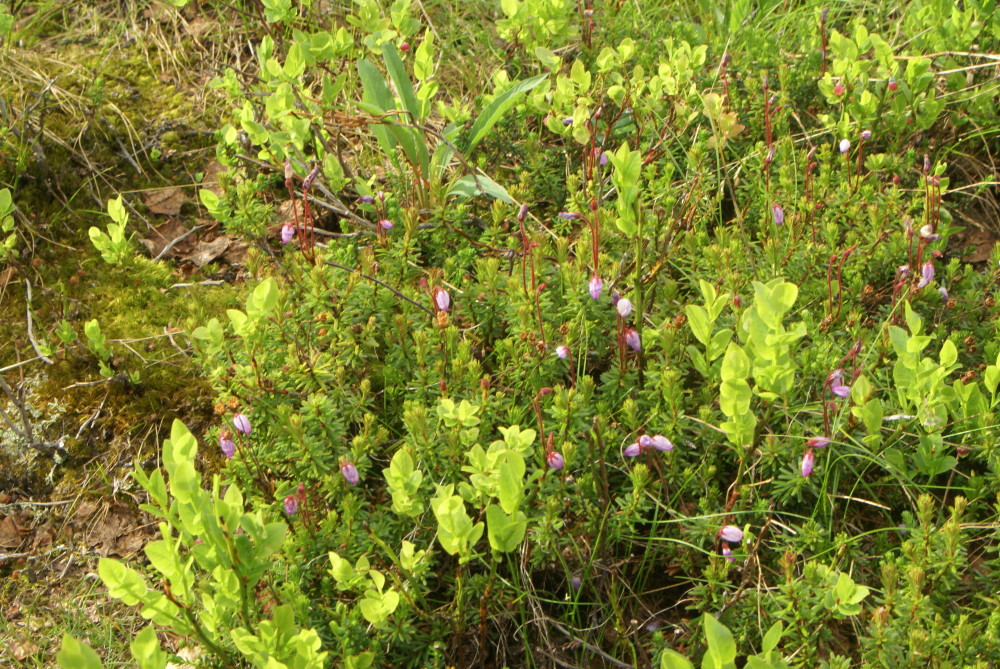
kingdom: Plantae
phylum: Tracheophyta
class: Magnoliopsida
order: Ericales
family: Ericaceae
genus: Phyllodoce
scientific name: Phyllodoce caerulea
